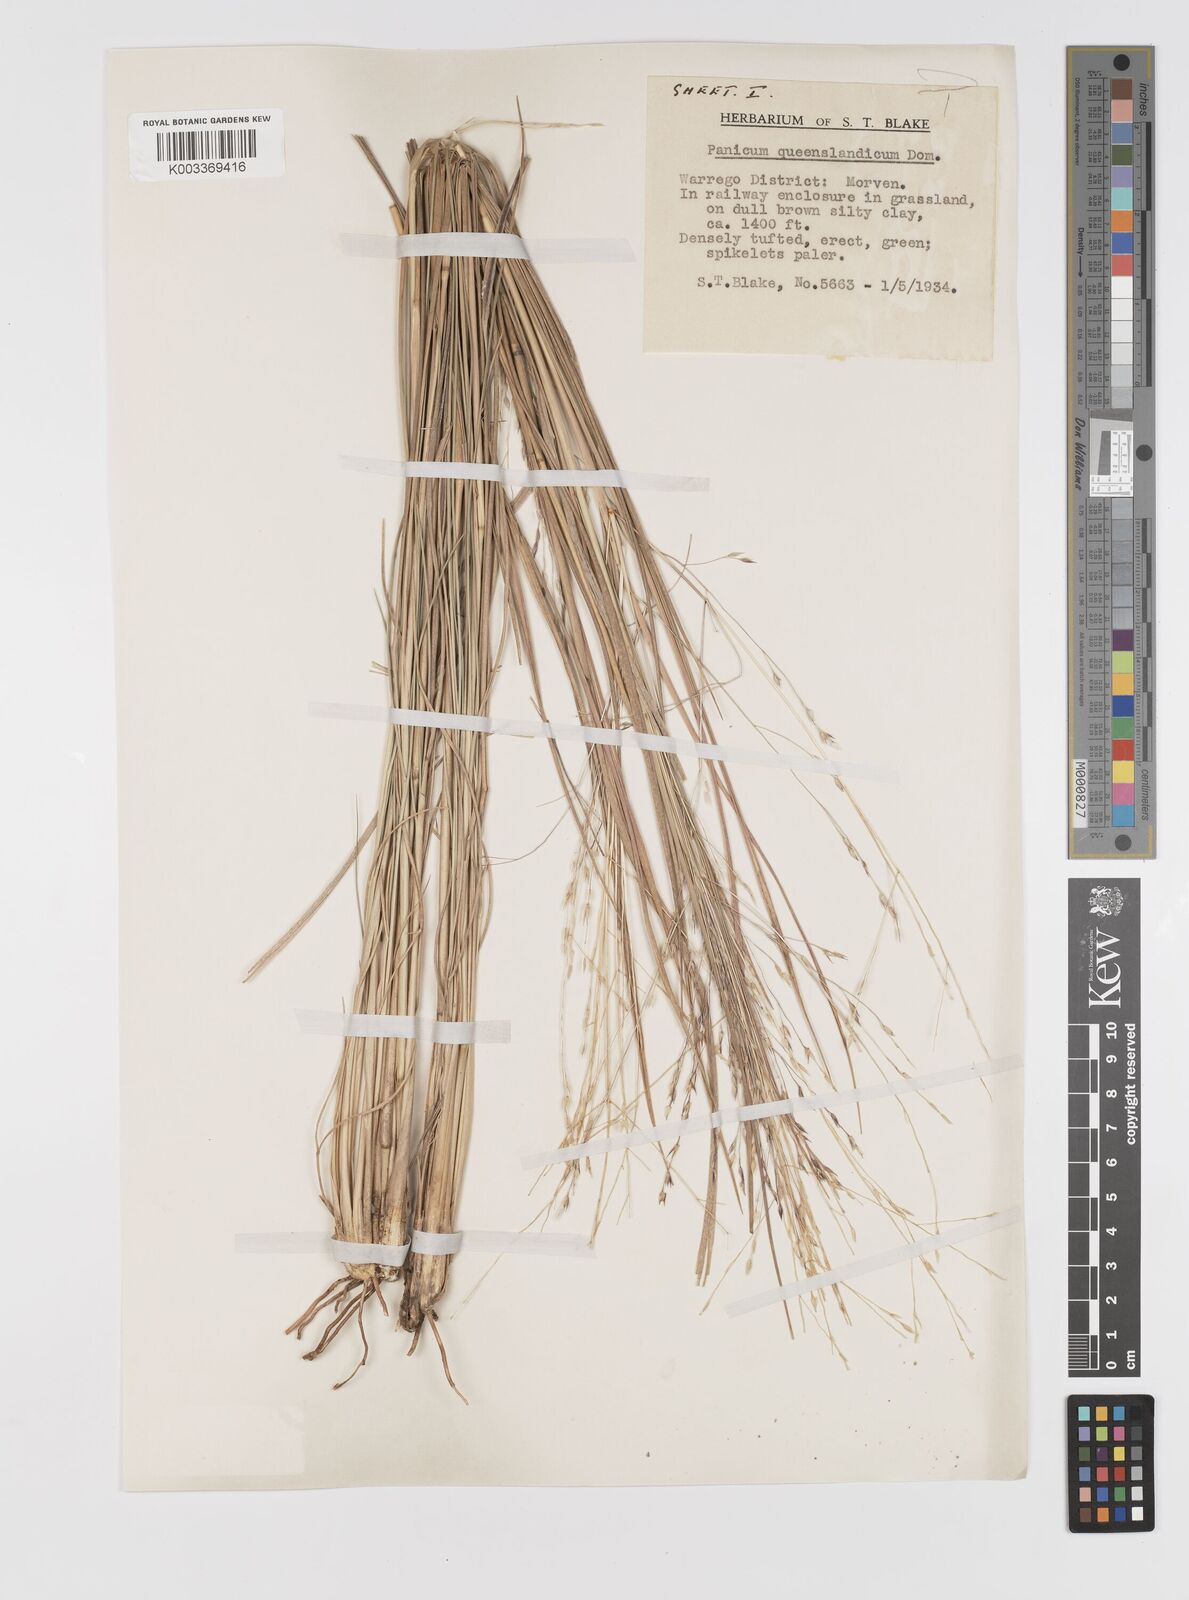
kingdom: Plantae
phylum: Tracheophyta
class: Liliopsida
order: Poales
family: Poaceae
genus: Panicum
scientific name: Panicum queenslandicum
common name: Yabila grass
